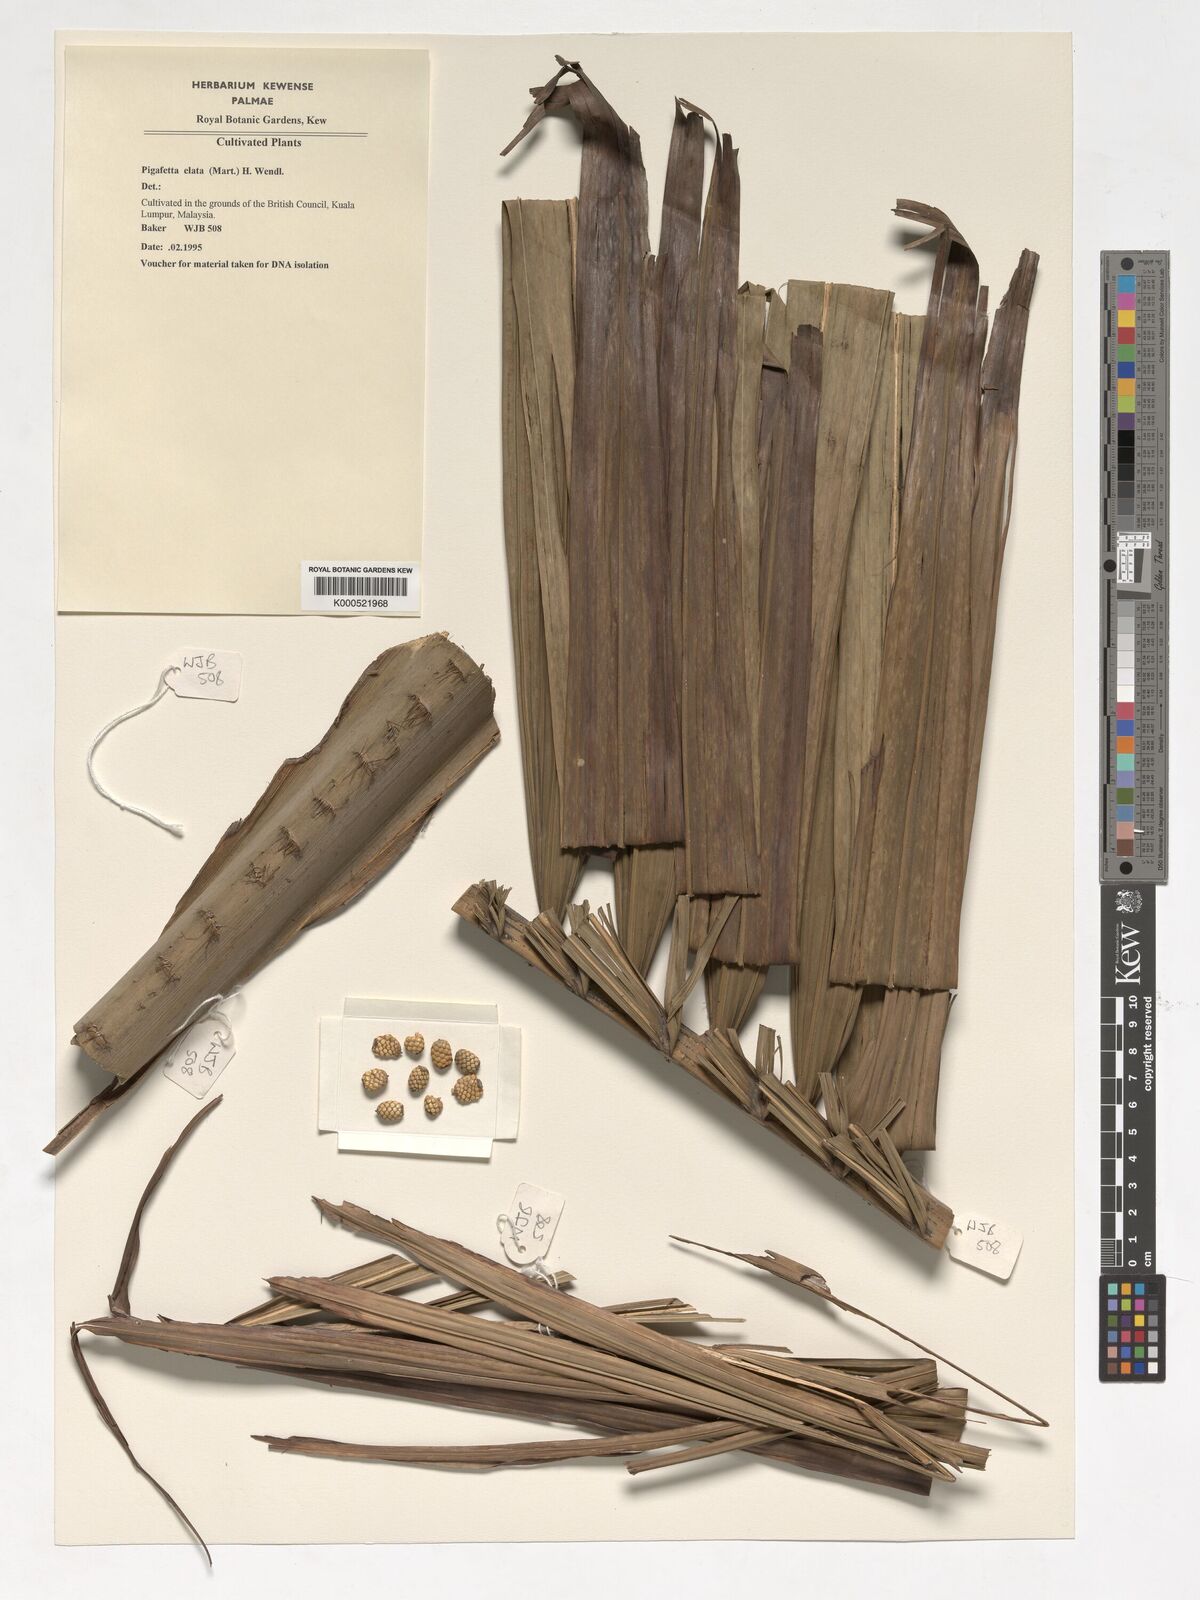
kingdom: Plantae
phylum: Tracheophyta
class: Liliopsida
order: Arecales
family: Arecaceae
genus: Pigafetta
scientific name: Pigafetta elata
